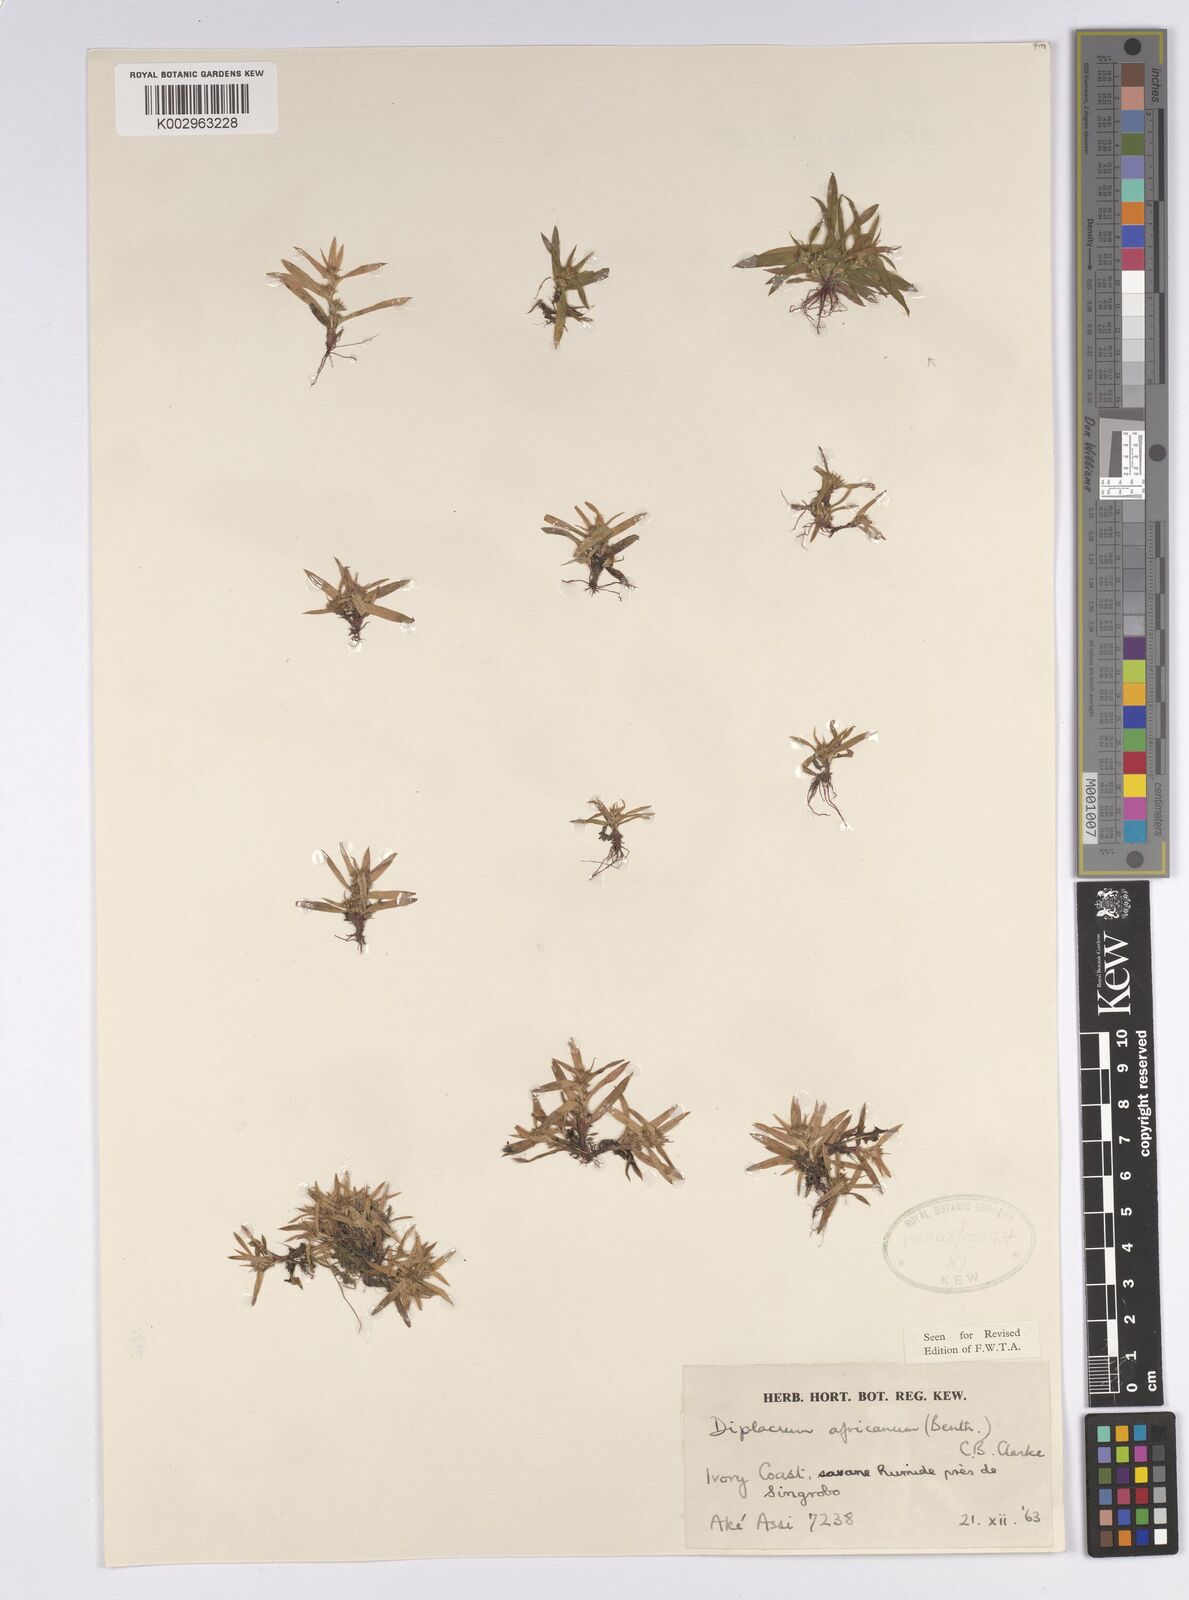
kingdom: Plantae
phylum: Tracheophyta
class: Liliopsida
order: Poales
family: Cyperaceae
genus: Diplacrum
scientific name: Diplacrum africanum
